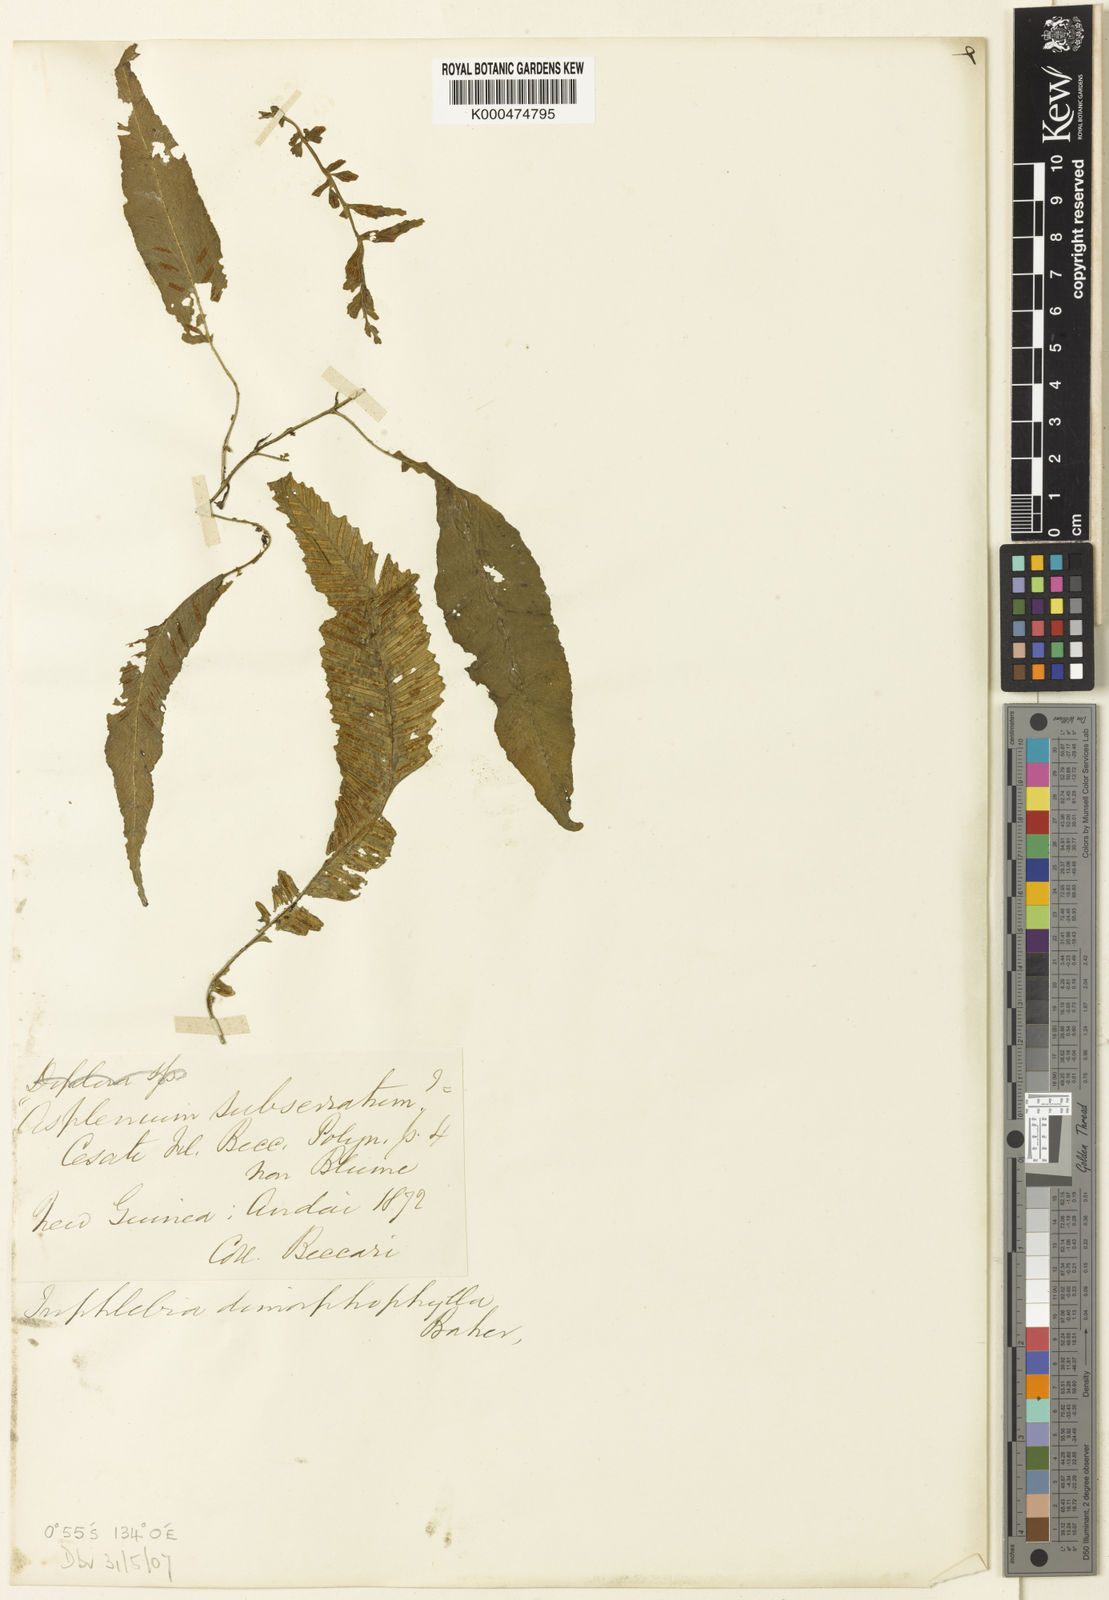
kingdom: Plantae
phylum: Tracheophyta
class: Polypodiopsida
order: Polypodiales
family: Aspleniaceae
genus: Asplenium
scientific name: Asplenium Diplora durvillaei
